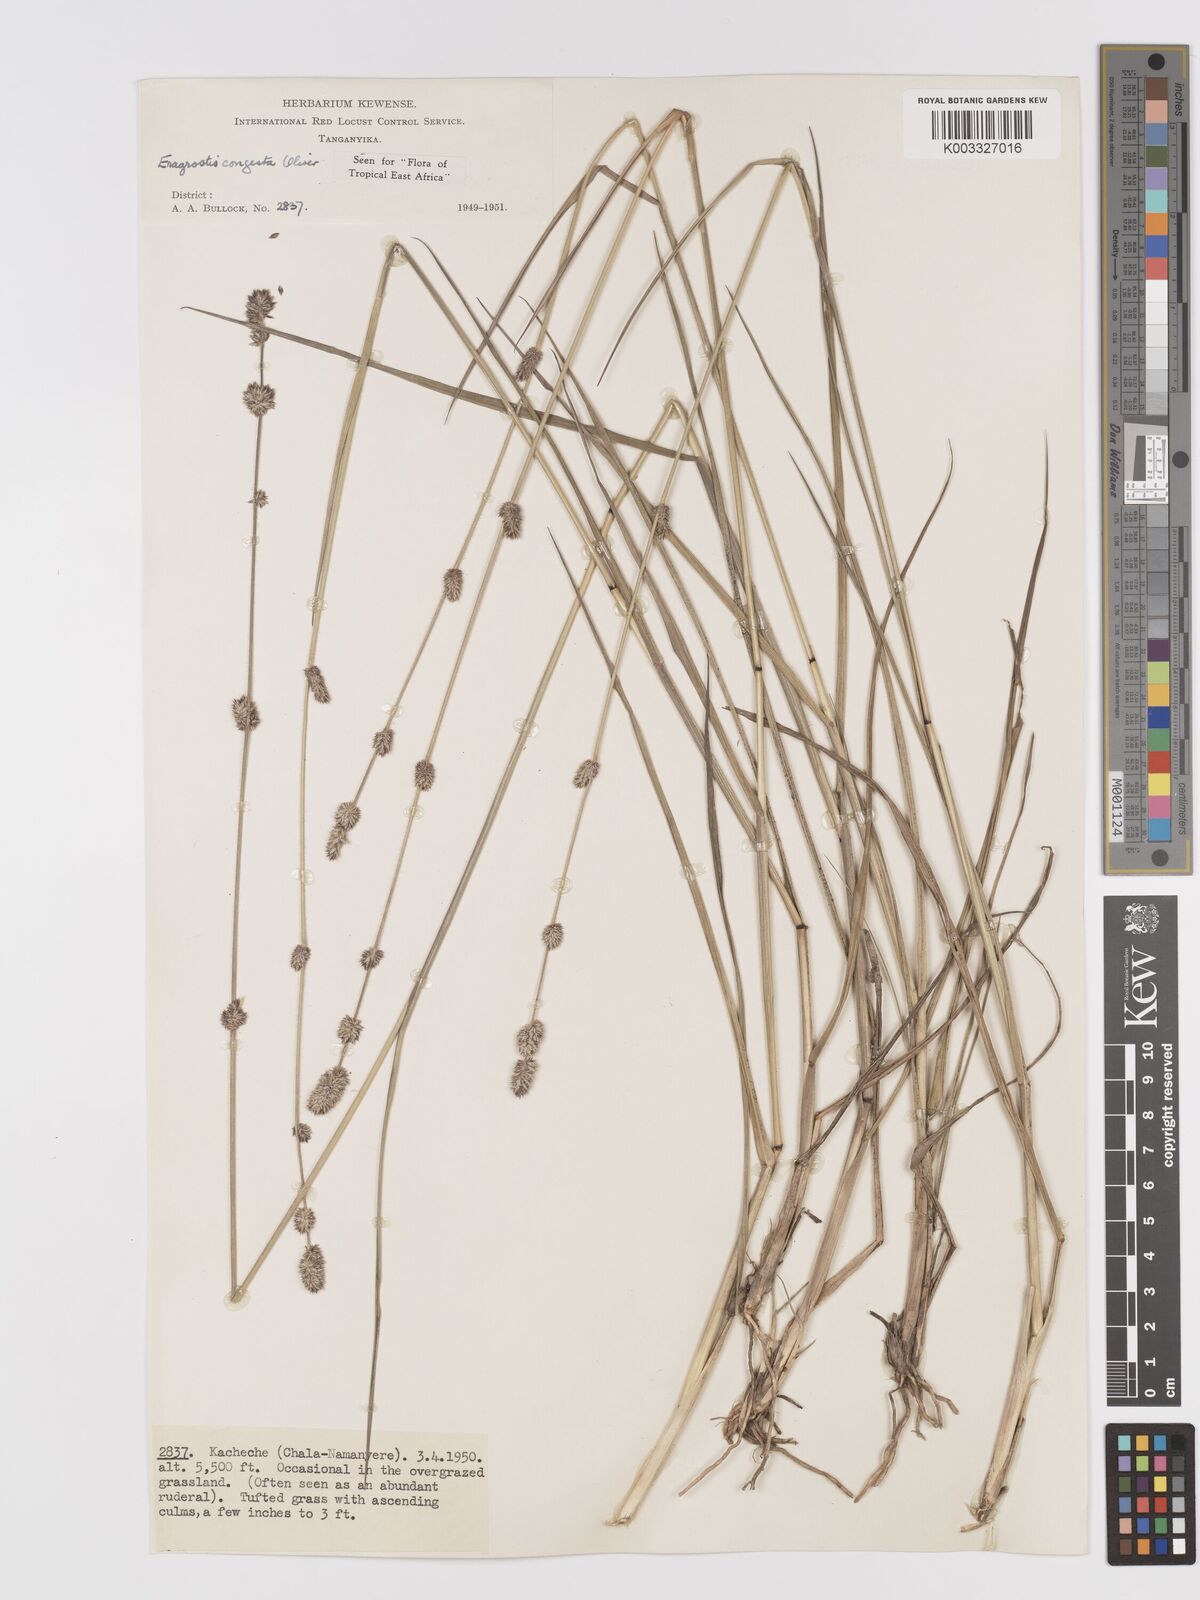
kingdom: Plantae
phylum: Tracheophyta
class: Liliopsida
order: Poales
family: Poaceae
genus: Eragrostis
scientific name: Eragrostis congesta
